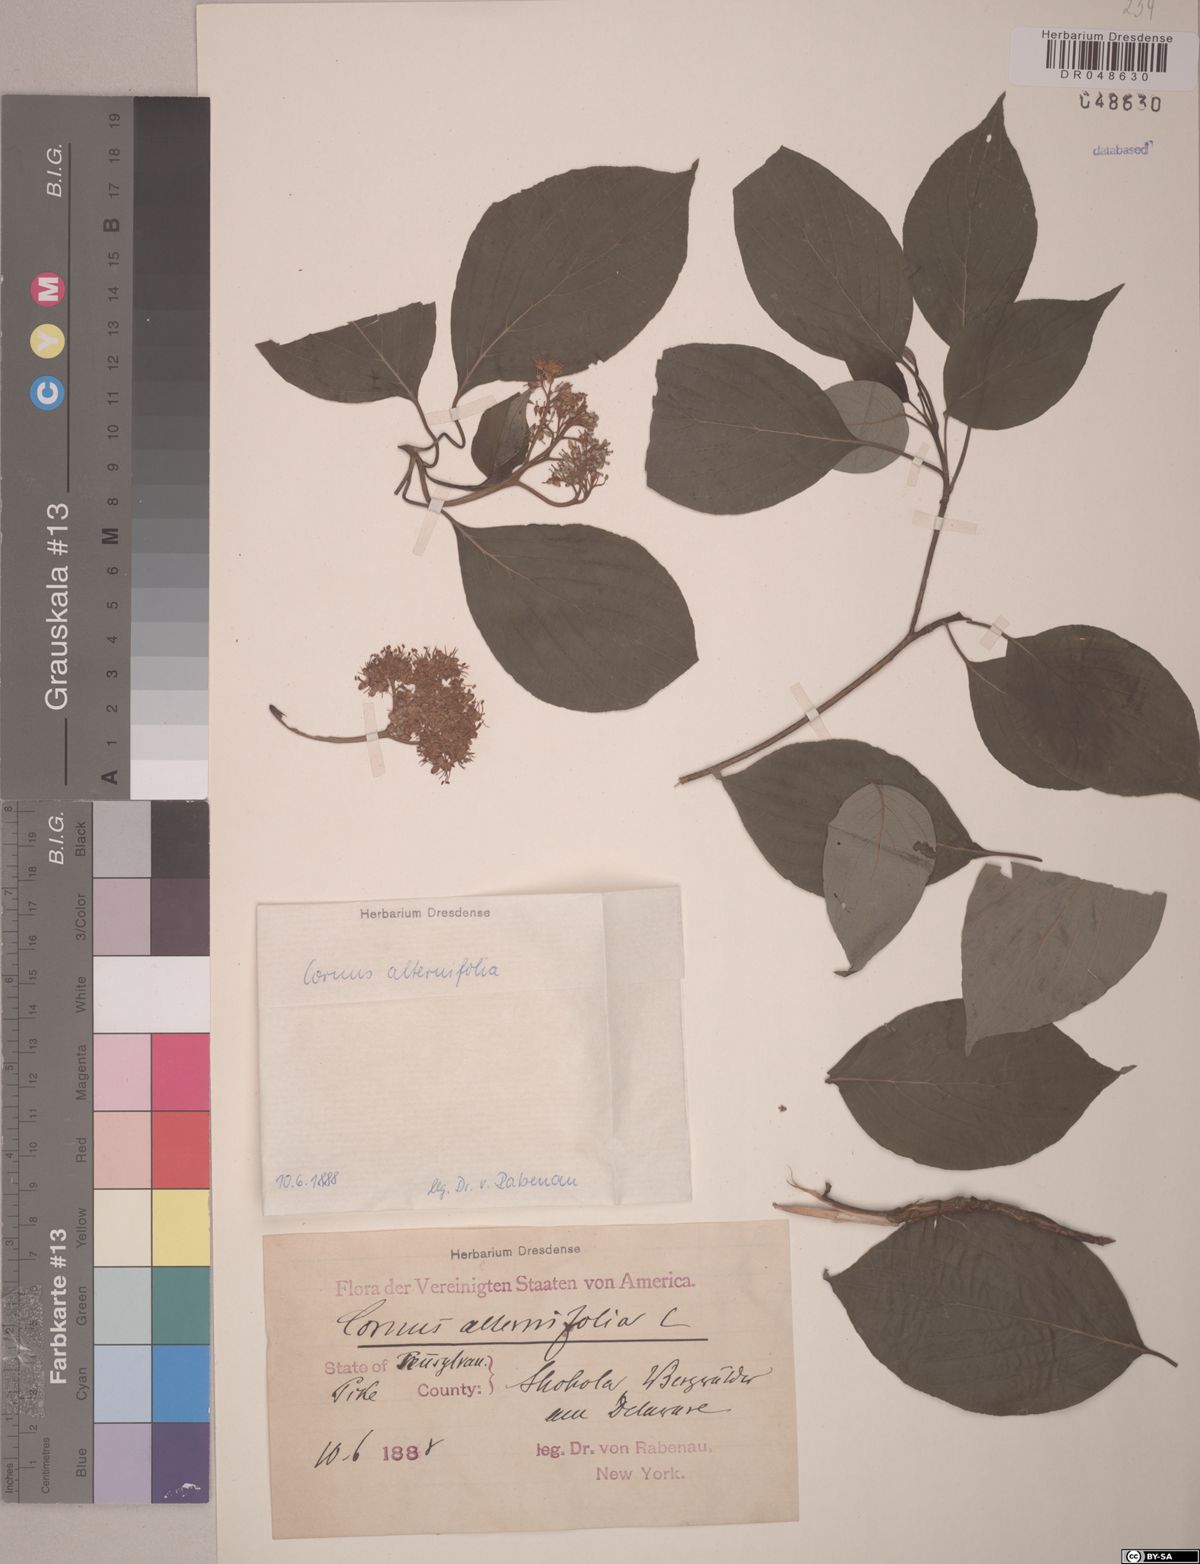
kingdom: Plantae
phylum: Tracheophyta
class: Magnoliopsida
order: Cornales
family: Cornaceae
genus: Cornus
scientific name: Cornus alternifolia
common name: Pagoda dogwood
